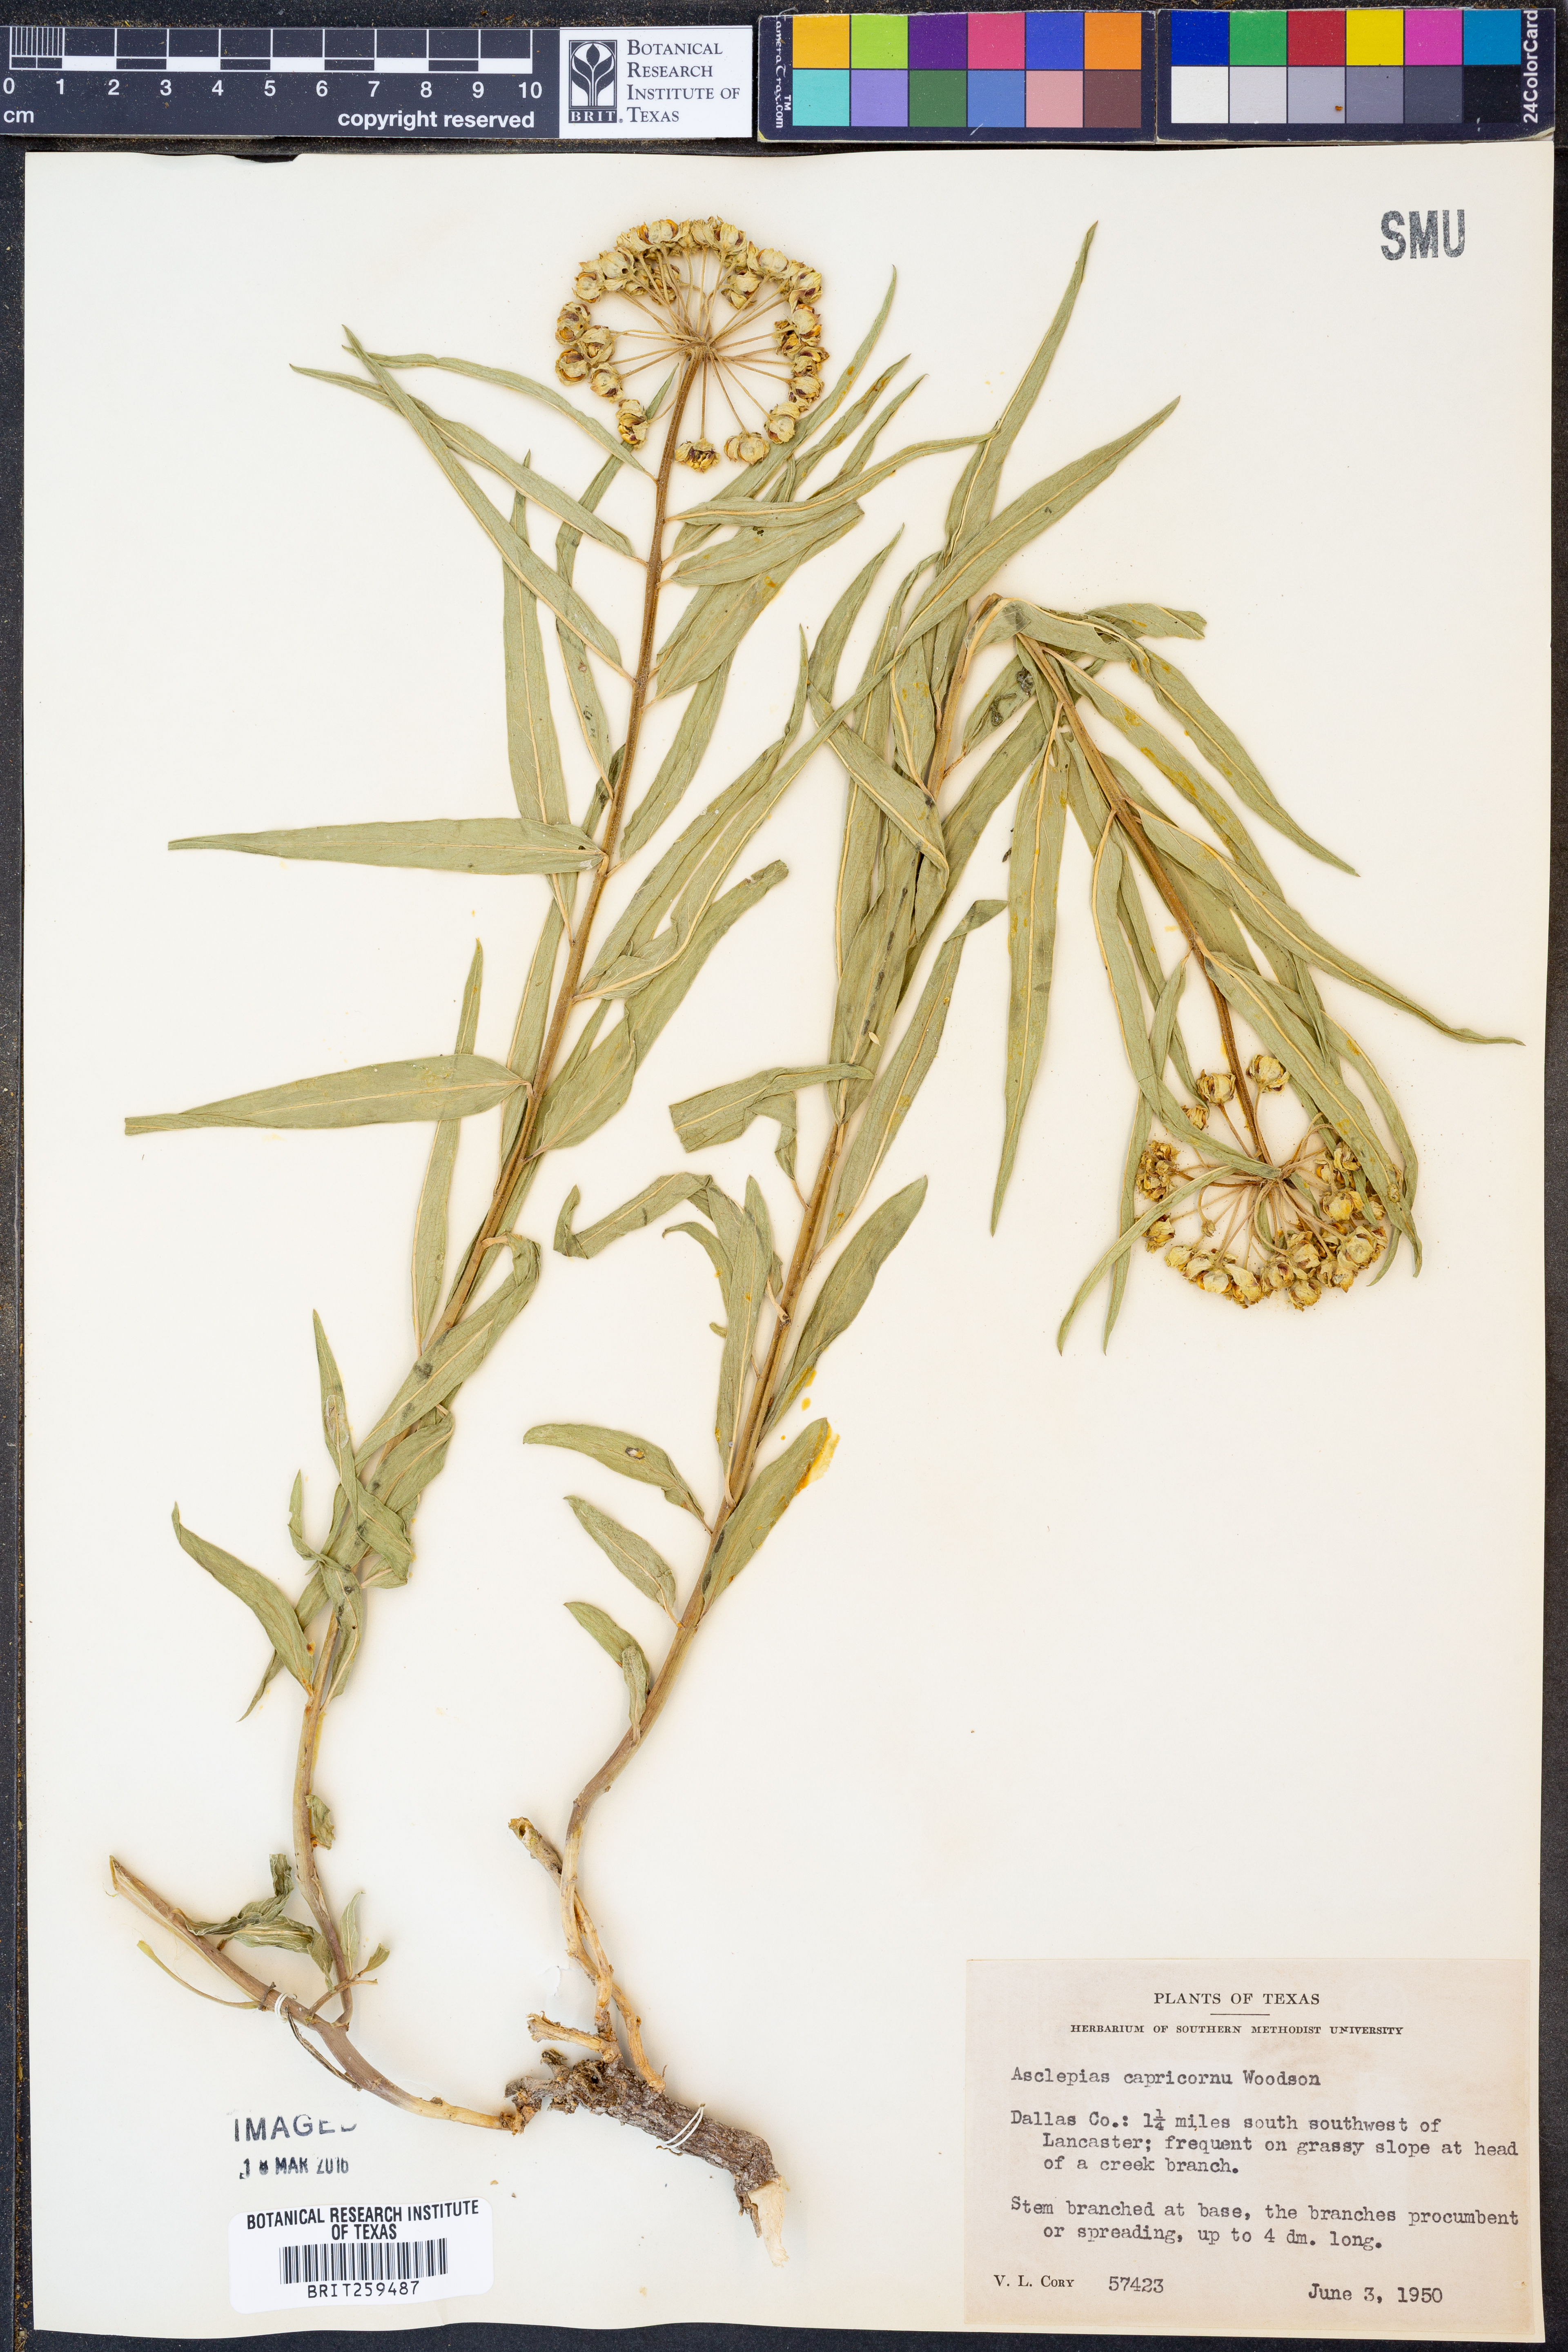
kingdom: Plantae
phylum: Tracheophyta
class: Magnoliopsida
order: Gentianales
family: Apocynaceae
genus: Asclepias
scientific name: Asclepias asperula
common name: Antelope horns
